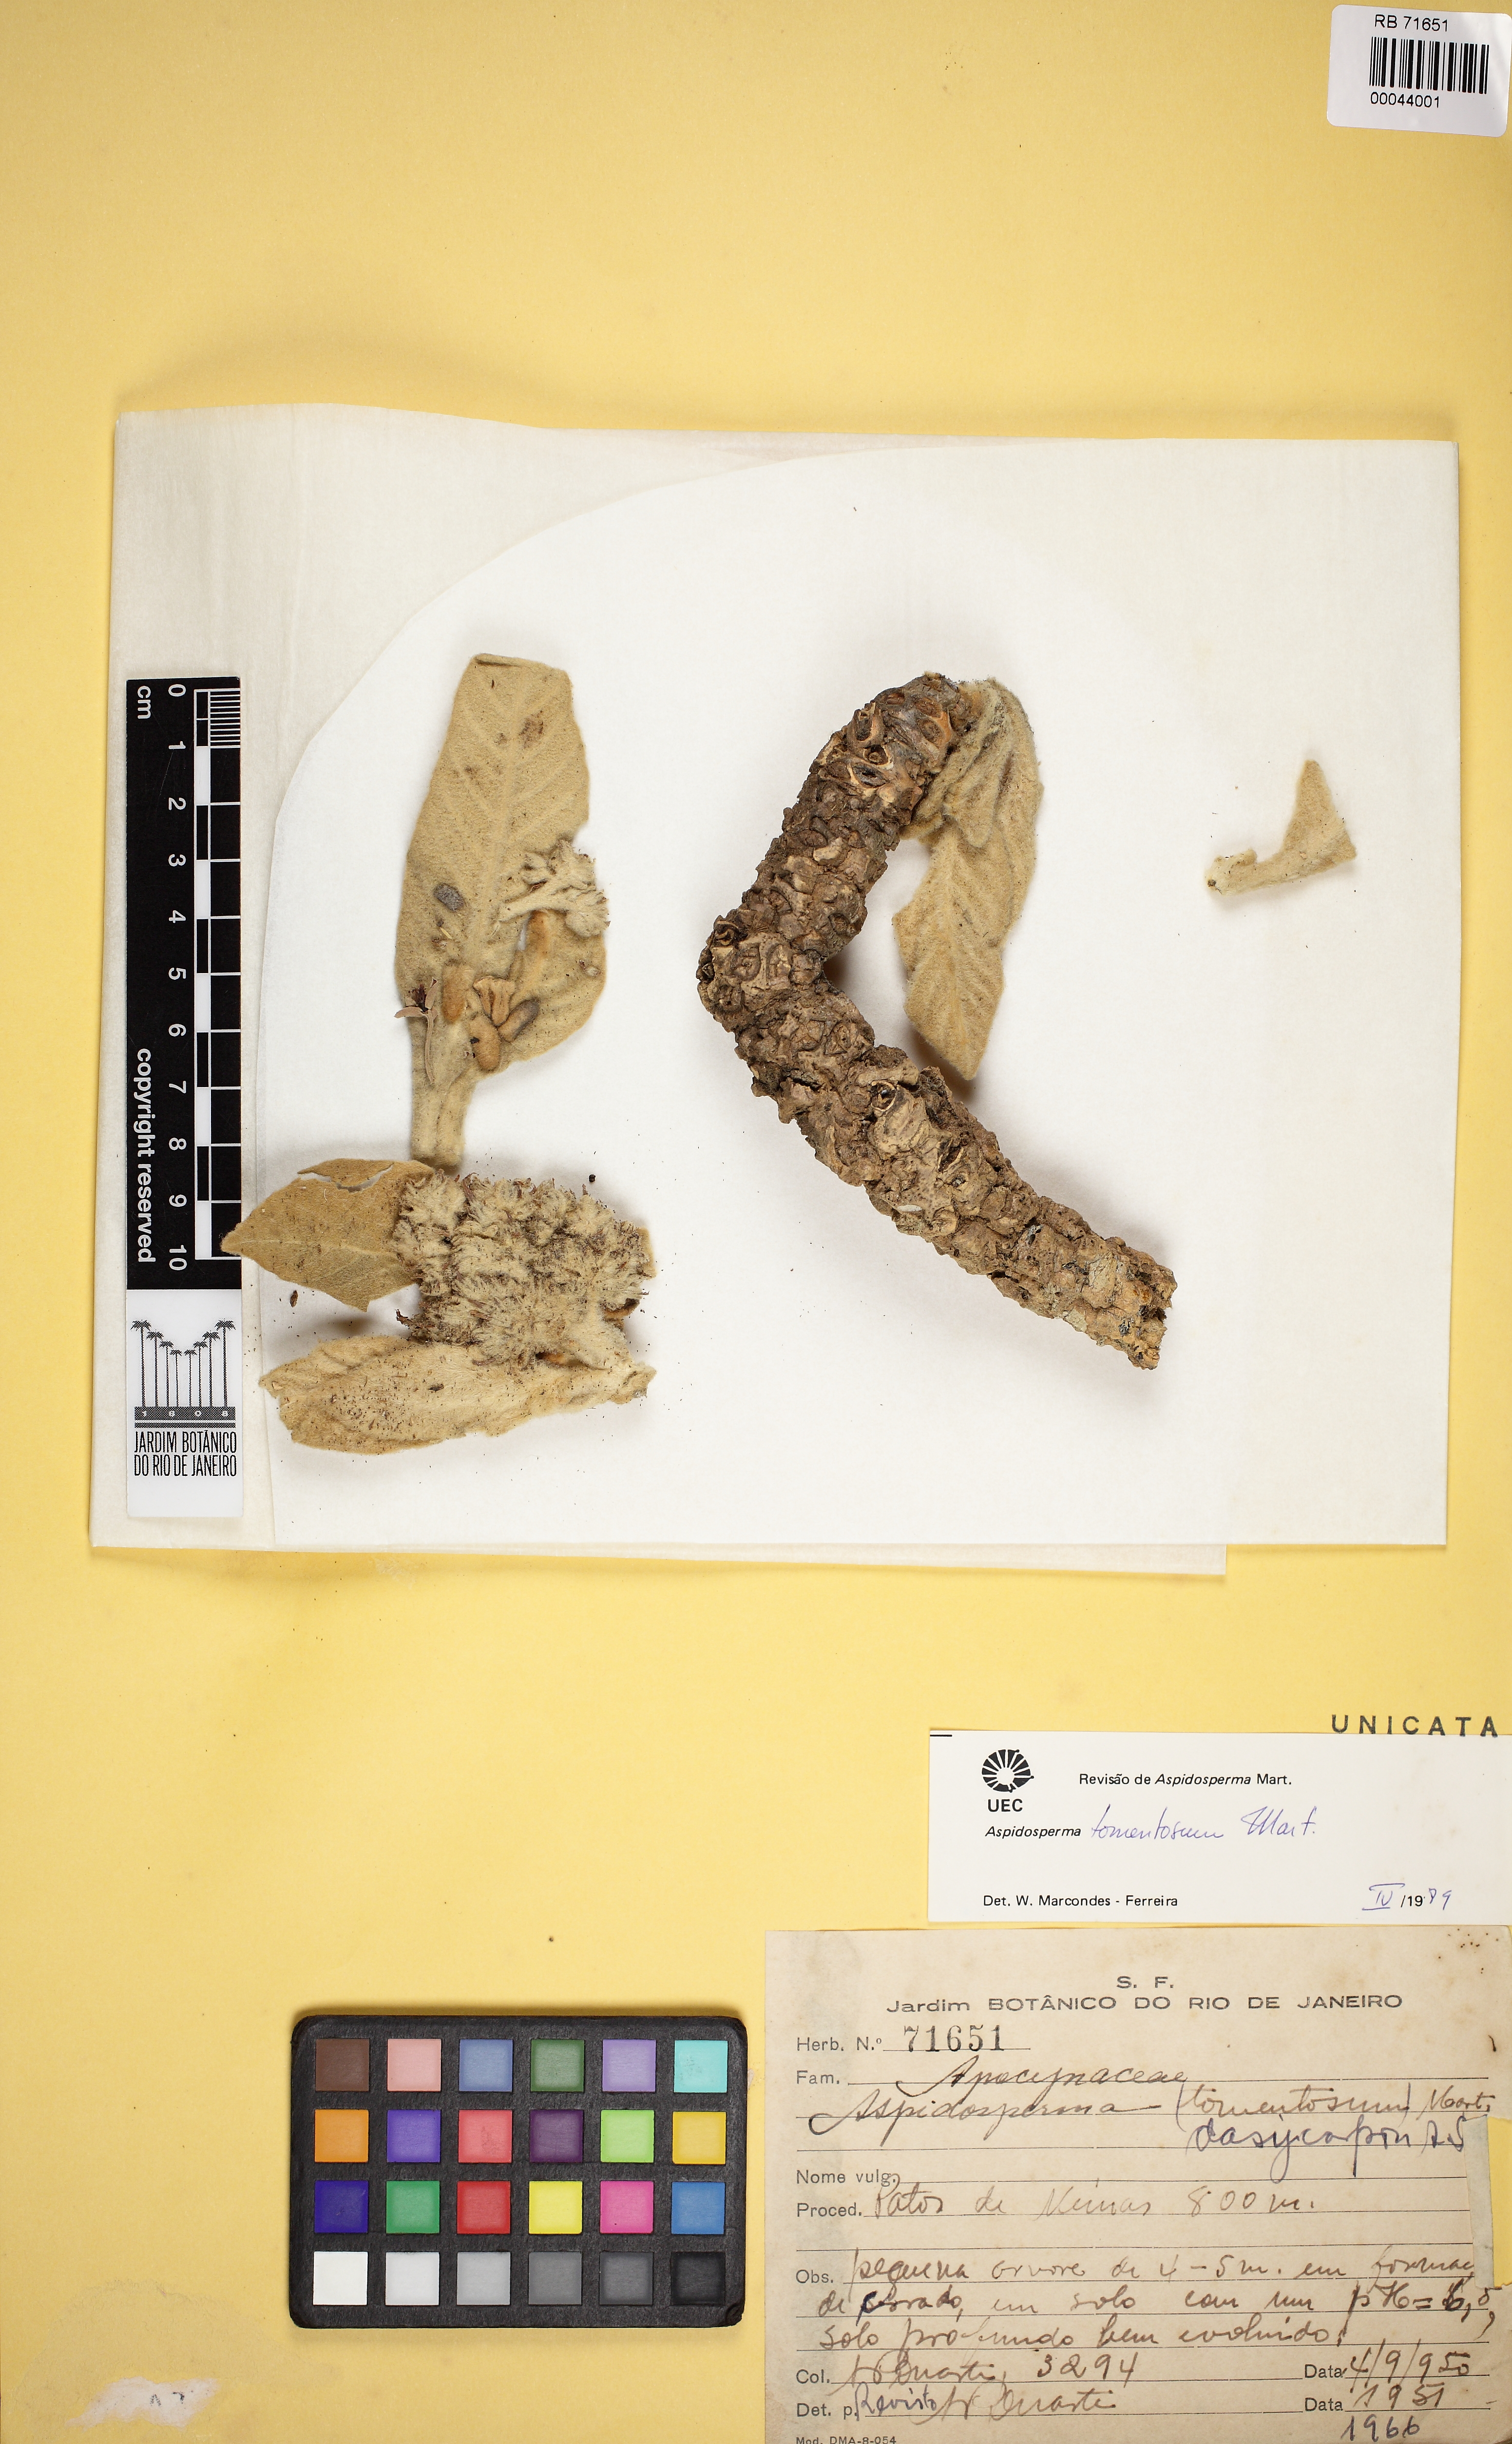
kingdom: Plantae
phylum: Tracheophyta
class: Magnoliopsida
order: Gentianales
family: Apocynaceae
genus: Aspidosperma
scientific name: Aspidosperma tomentosum
